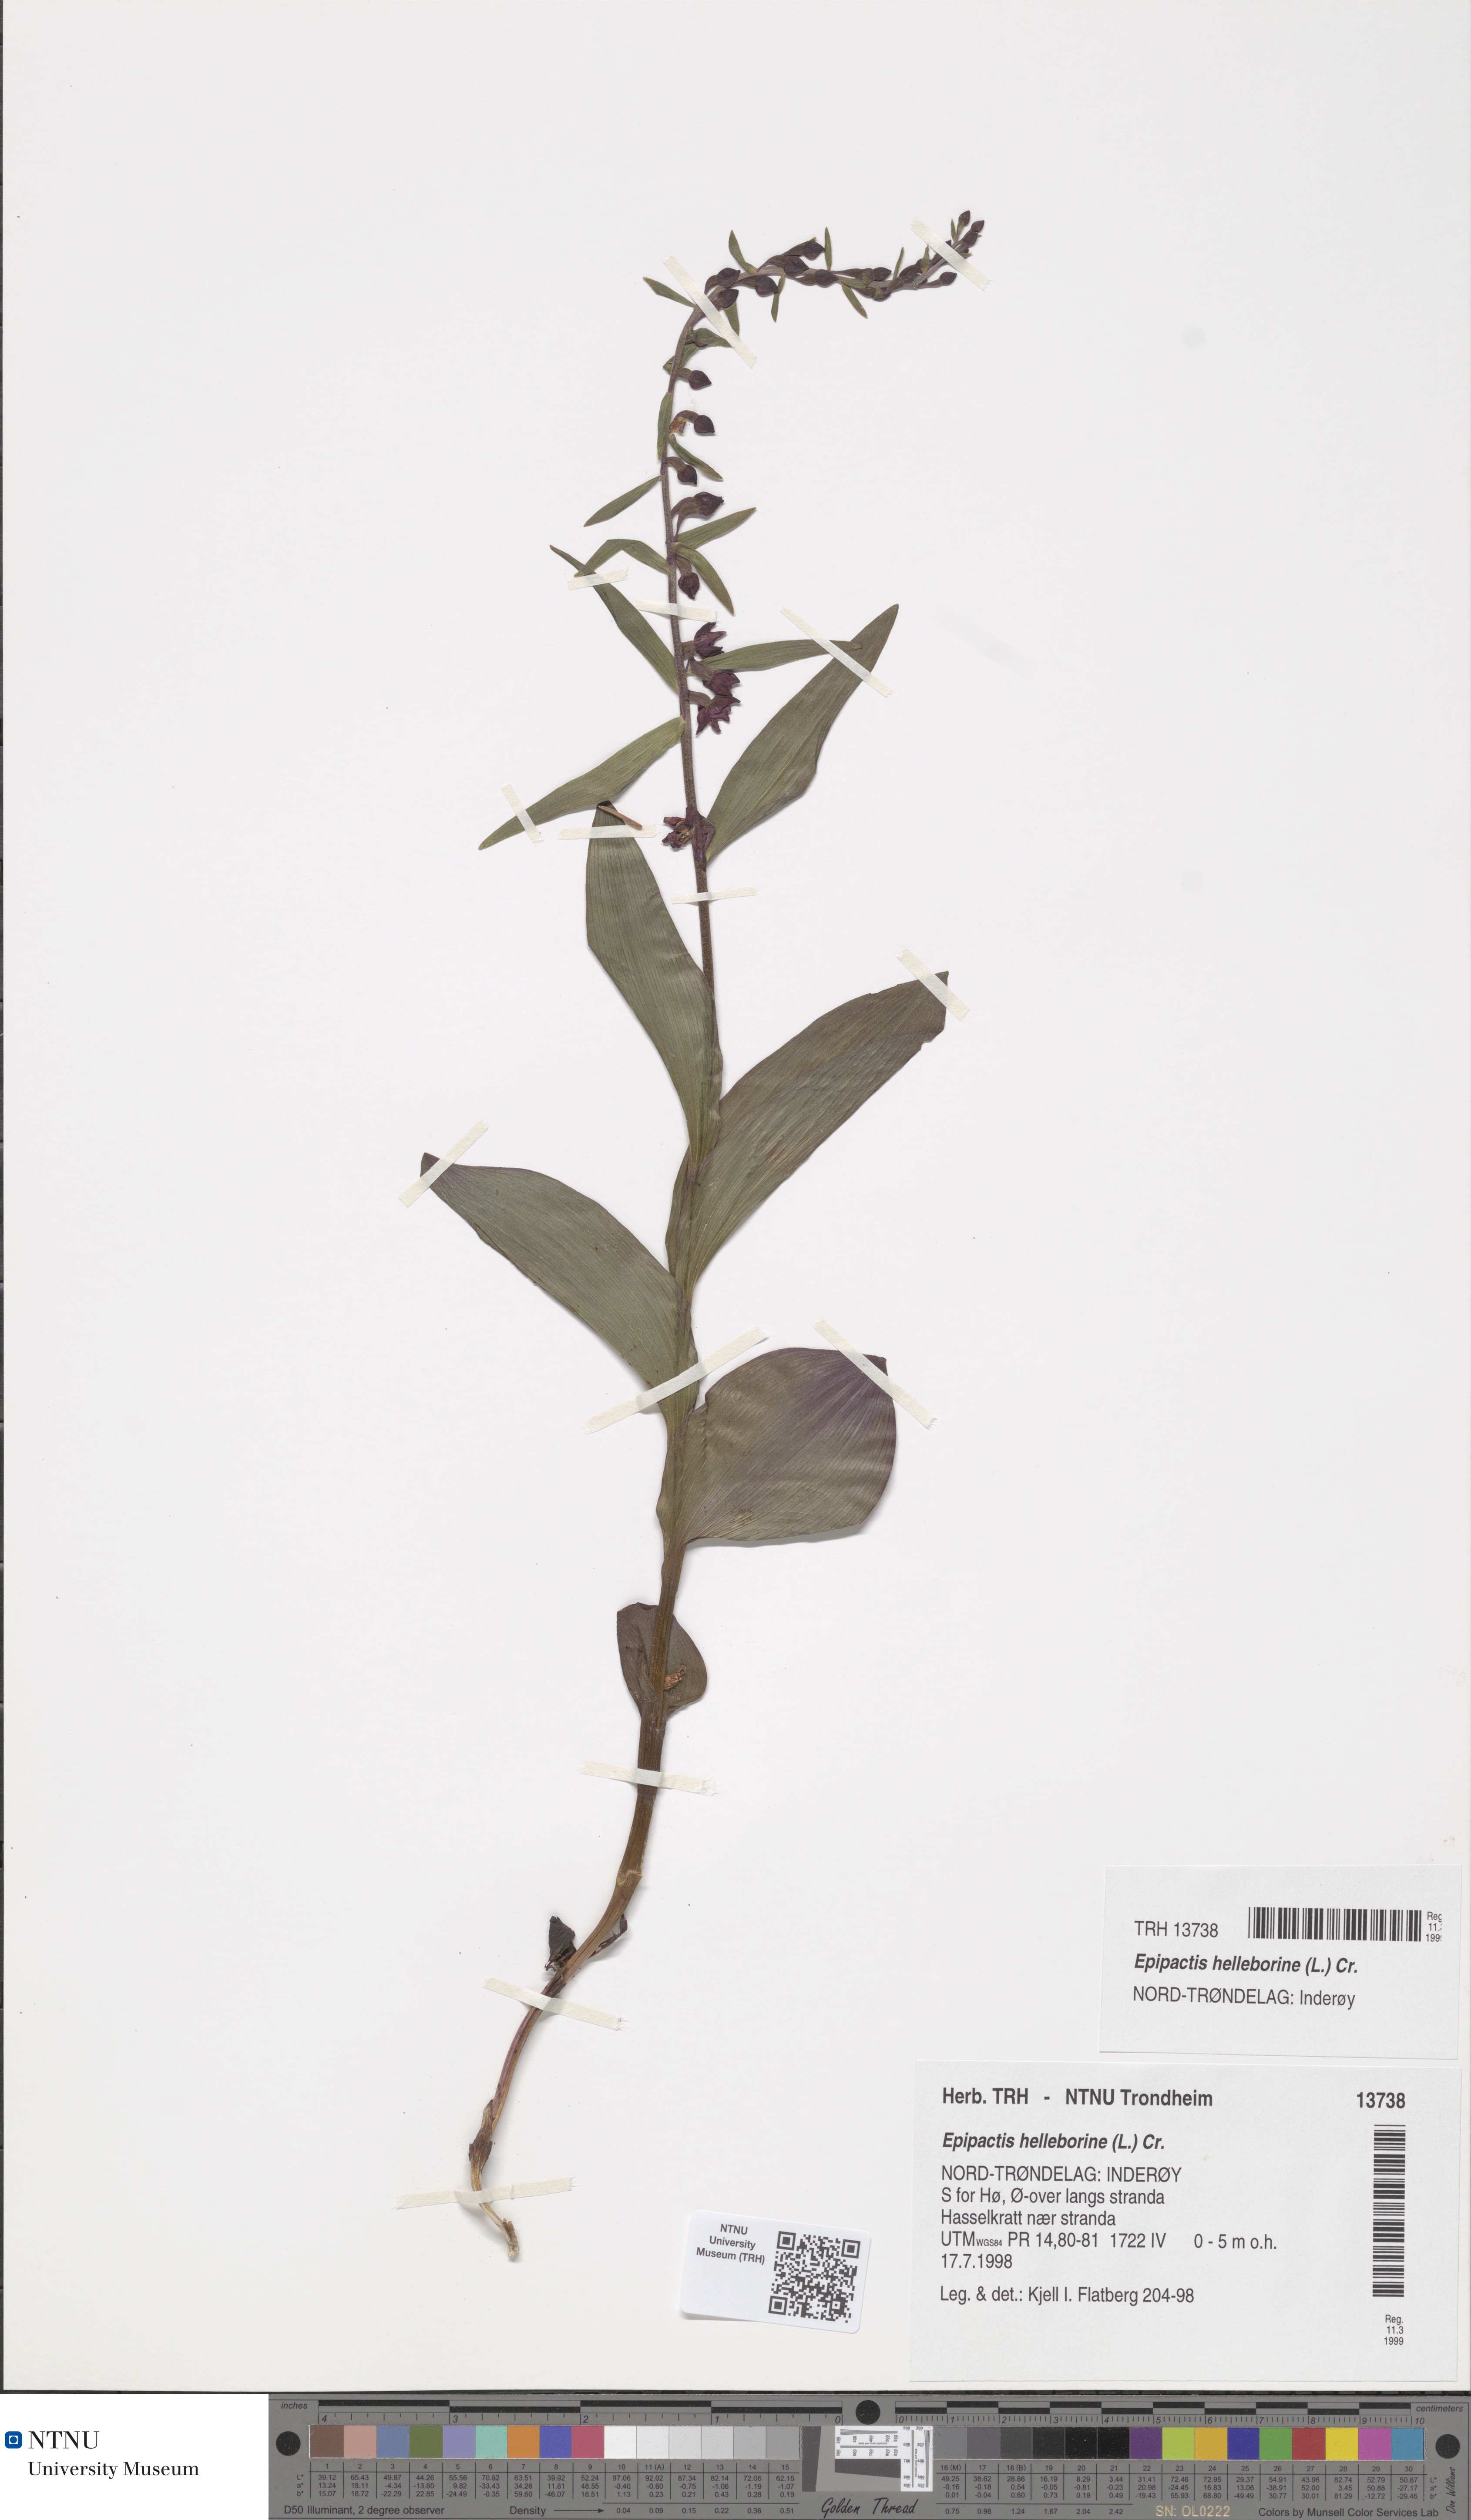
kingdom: Plantae
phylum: Tracheophyta
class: Liliopsida
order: Asparagales
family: Orchidaceae
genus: Epipactis
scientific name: Epipactis helleborine
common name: Broad-leaved helleborine
